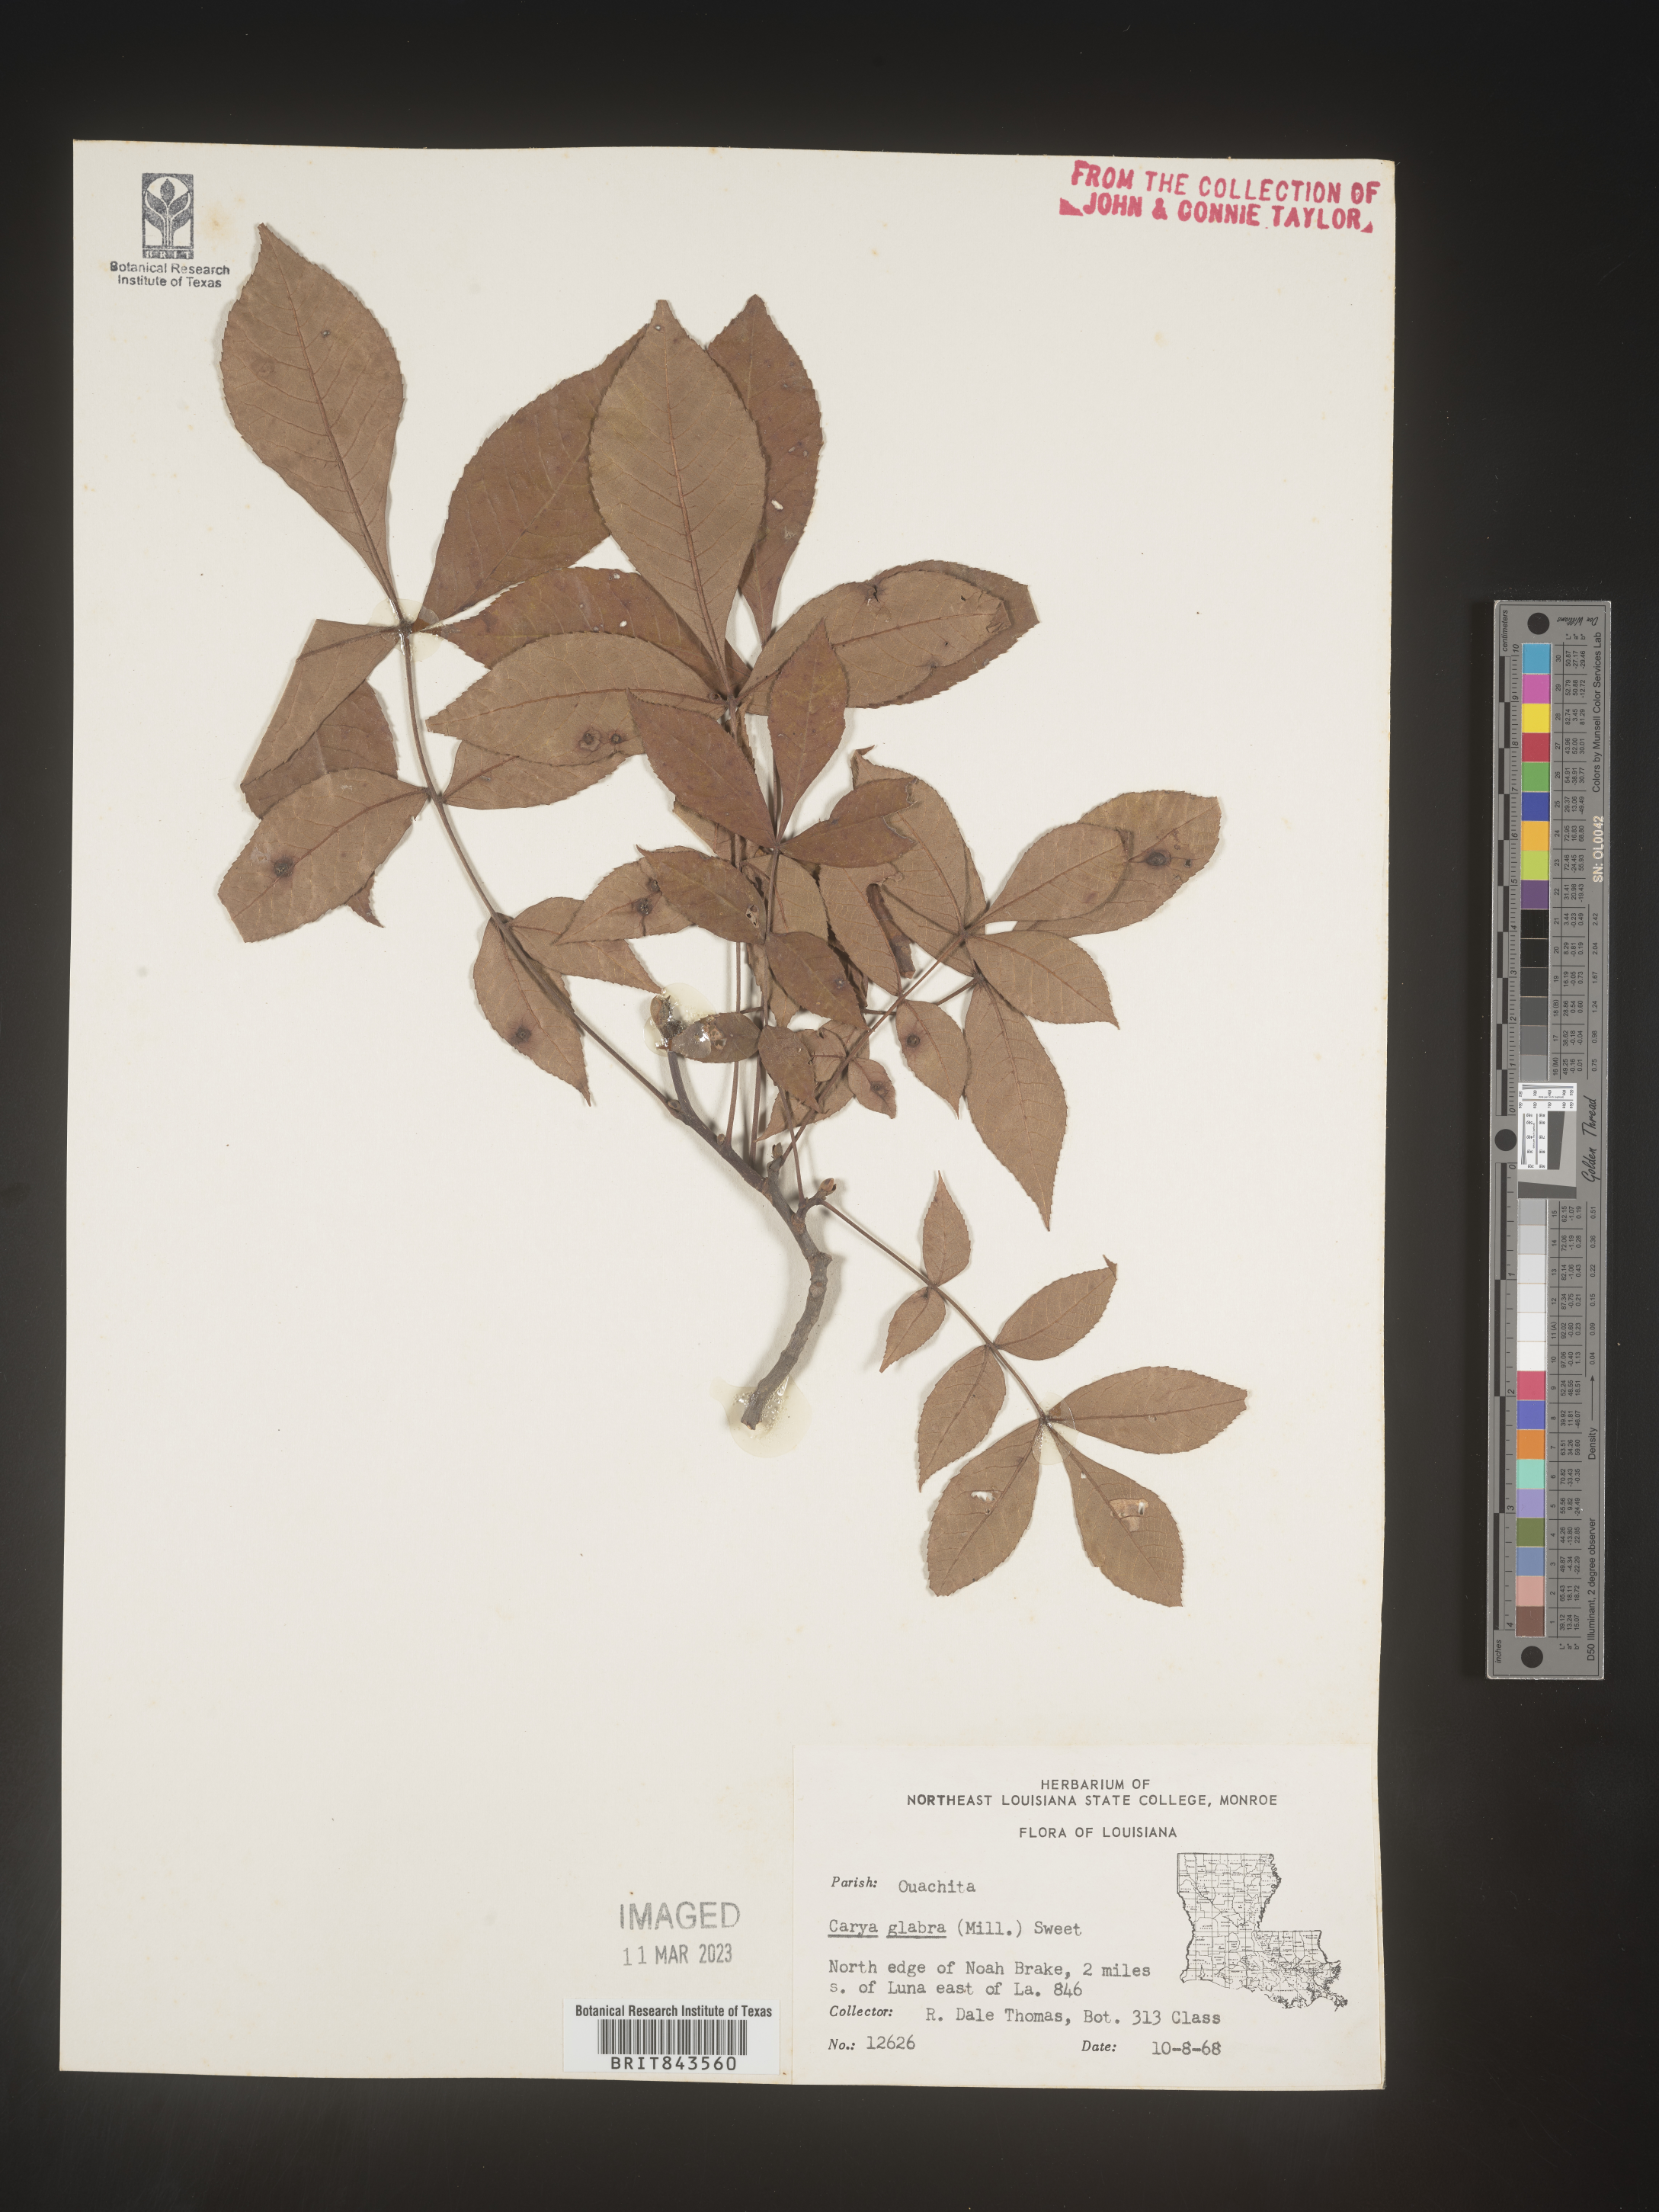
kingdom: Plantae
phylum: Tracheophyta
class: Magnoliopsida
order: Fagales
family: Juglandaceae
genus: Carya
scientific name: Carya glabra
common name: Pignut hickory
